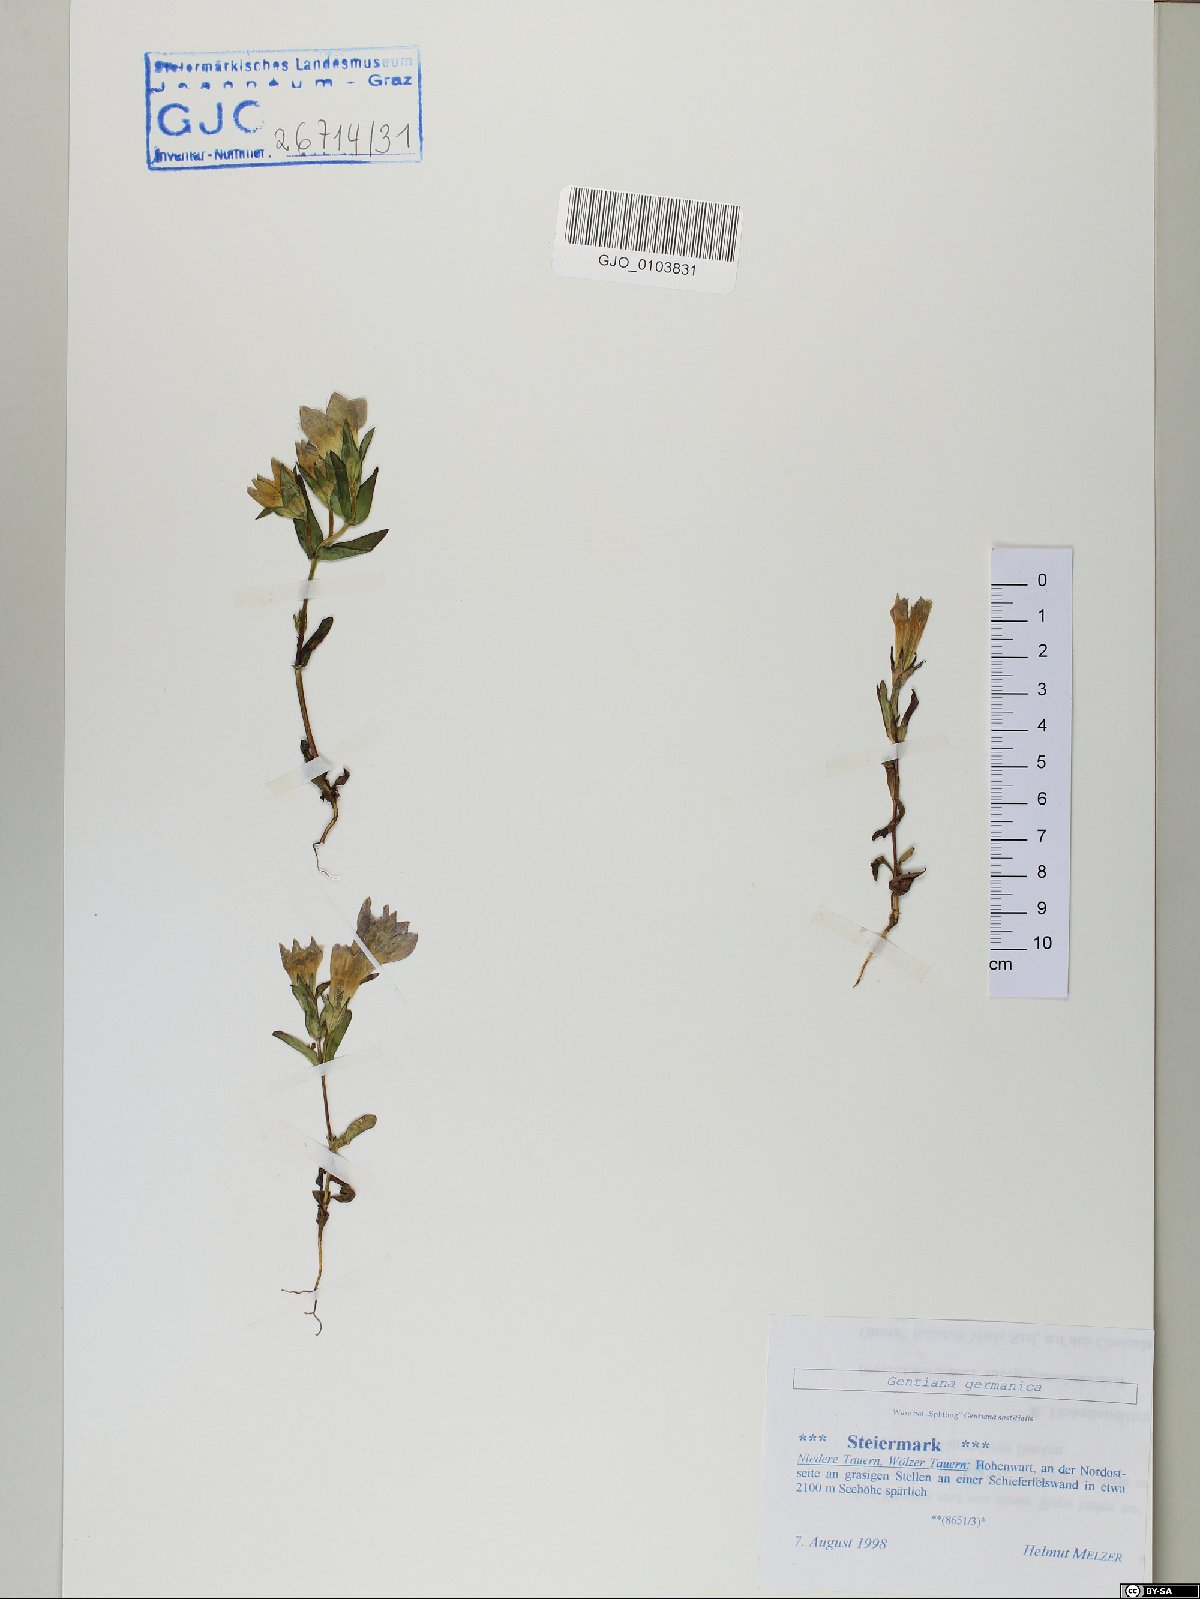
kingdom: Plantae
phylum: Tracheophyta
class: Magnoliopsida
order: Gentianales
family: Gentianaceae
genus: Gentianella
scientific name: Gentianella germanica
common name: Chiltern-gentian
